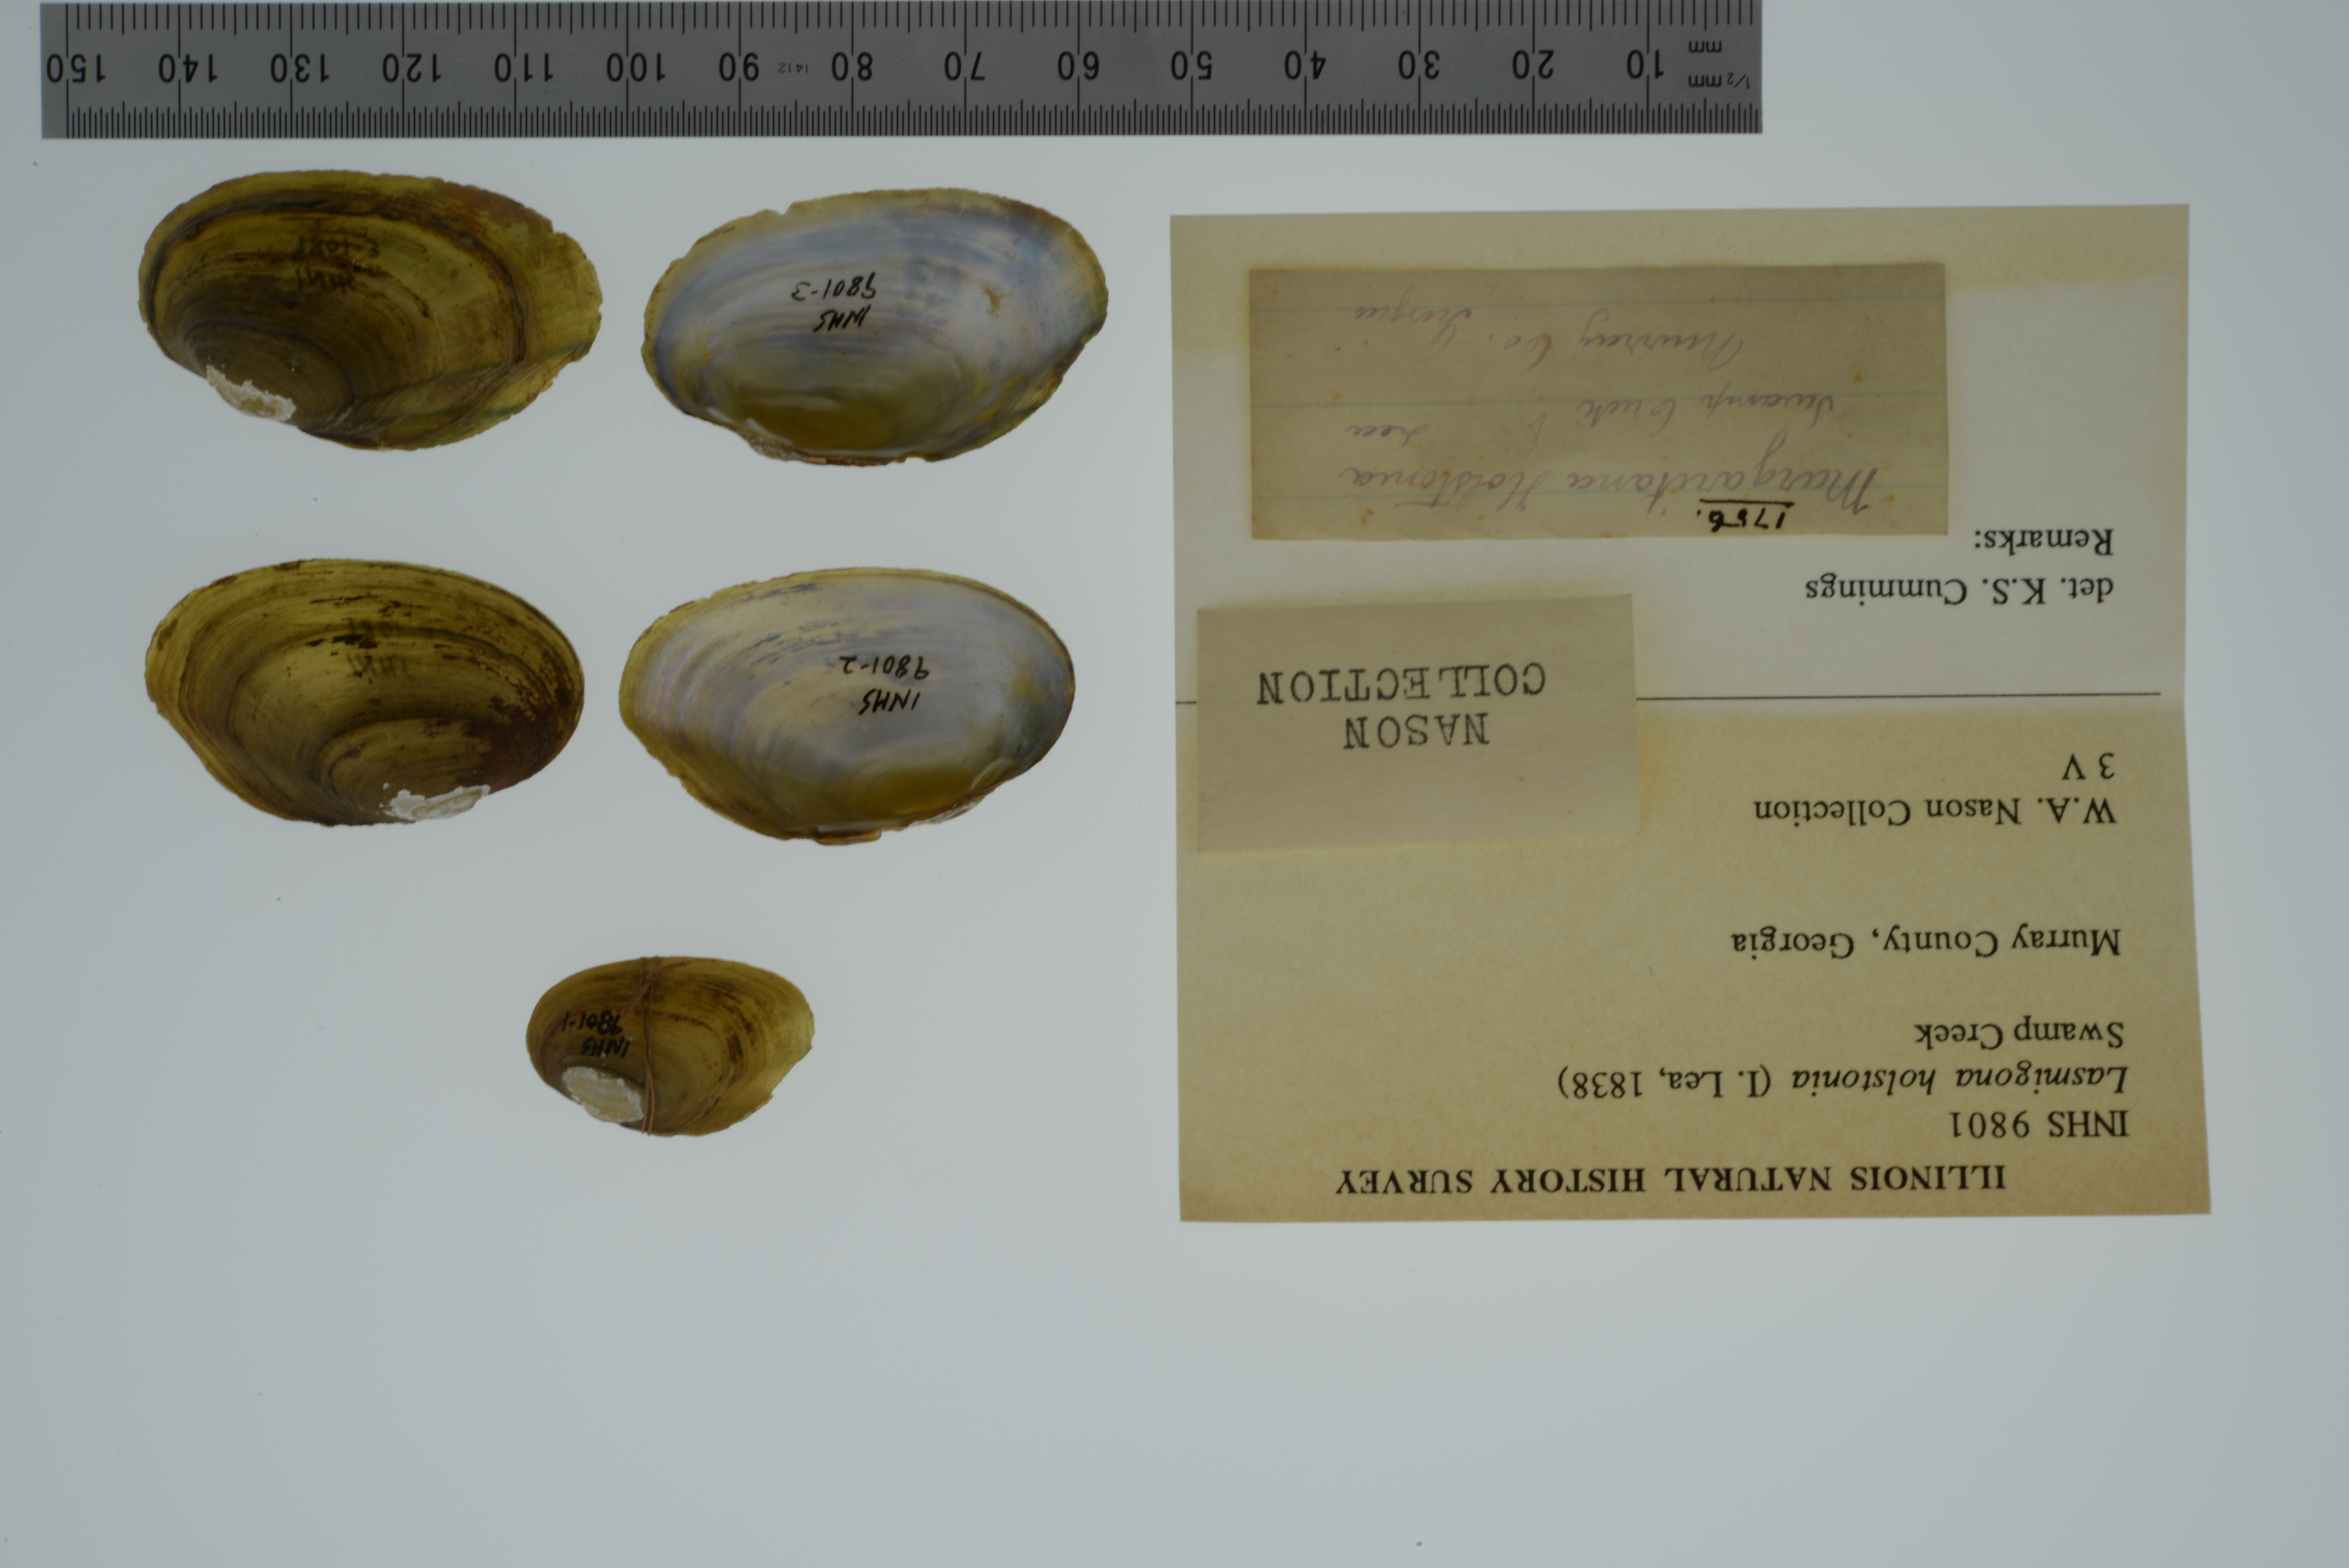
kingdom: Animalia
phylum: Mollusca
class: Bivalvia
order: Unionida
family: Unionidae
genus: Lasmigona
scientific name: Lasmigona holstonia
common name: Tennessee heelsplitter
